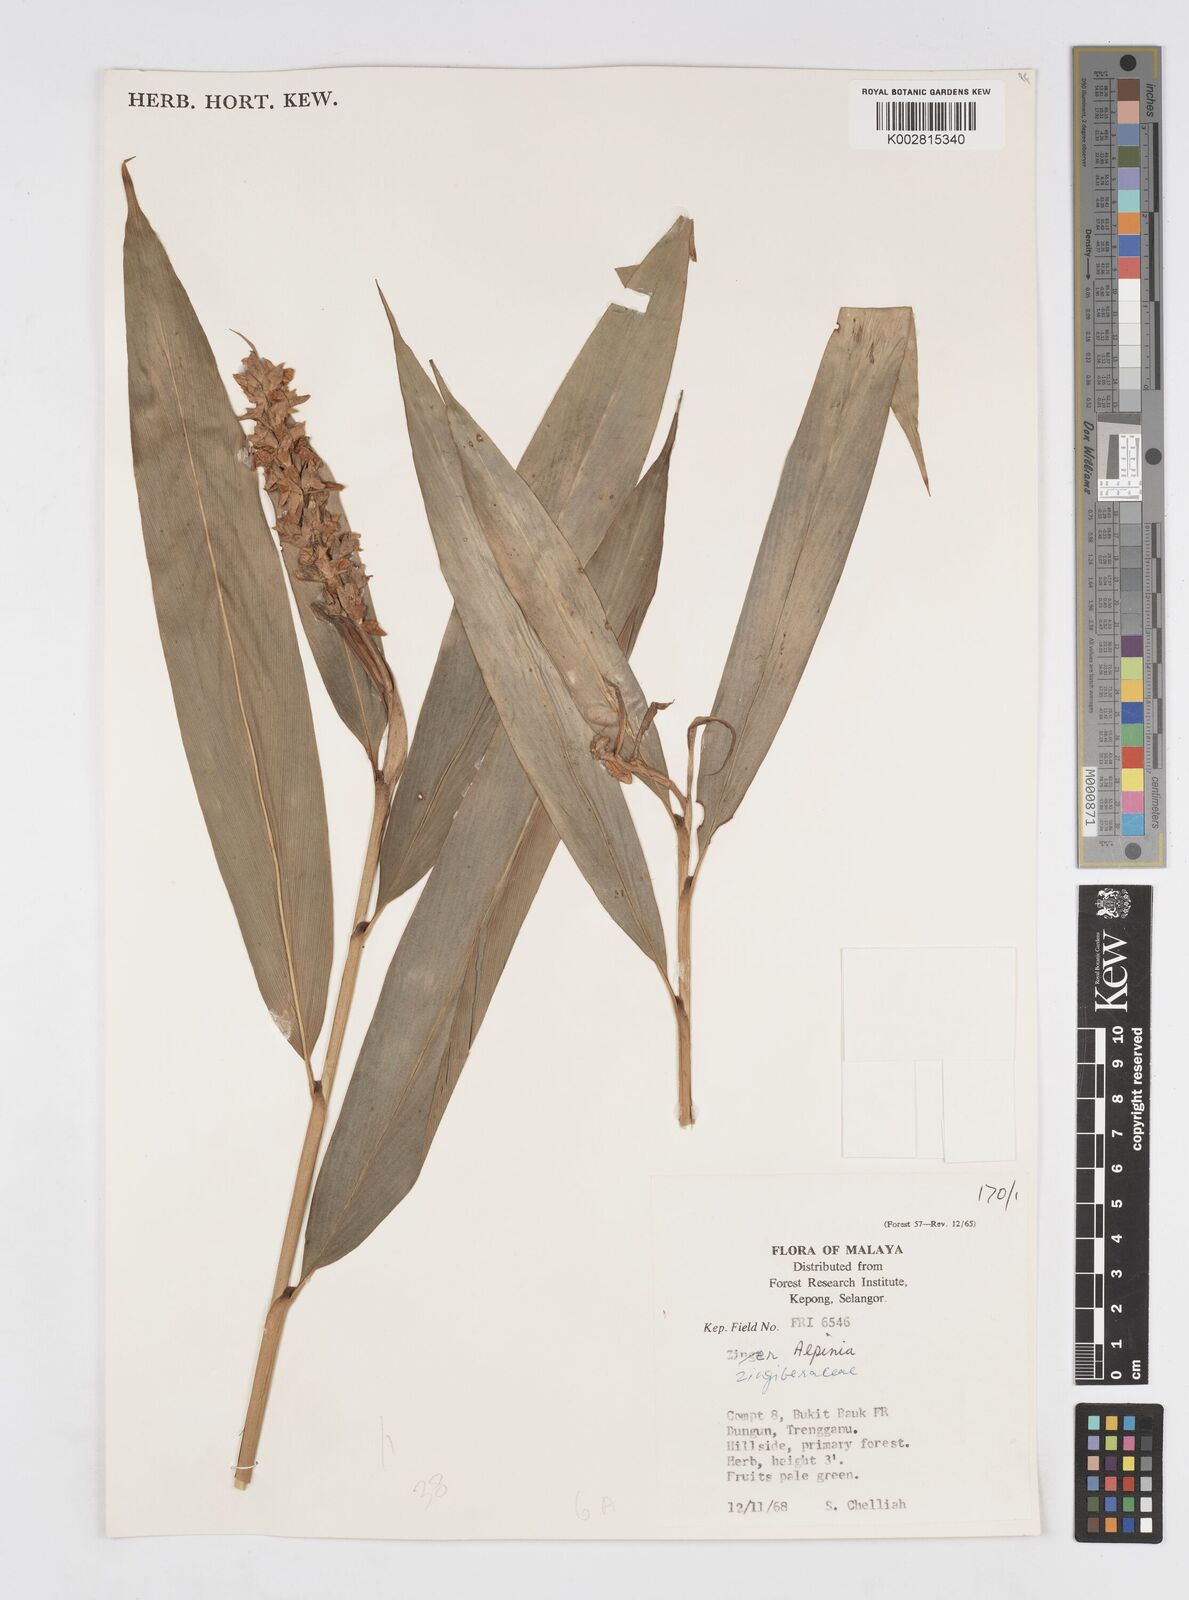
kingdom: Plantae
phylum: Tracheophyta
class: Liliopsida
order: Zingiberales
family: Zingiberaceae
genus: Alpinia
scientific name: Alpinia
